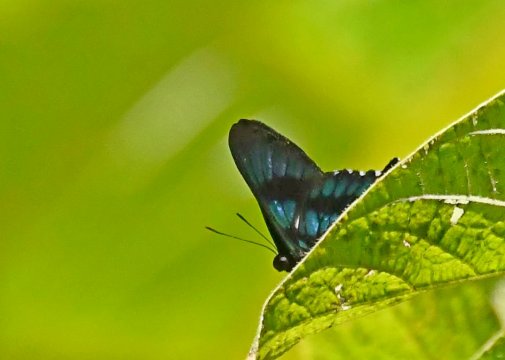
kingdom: Animalia
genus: Ancyluris
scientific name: Ancyluris inca
